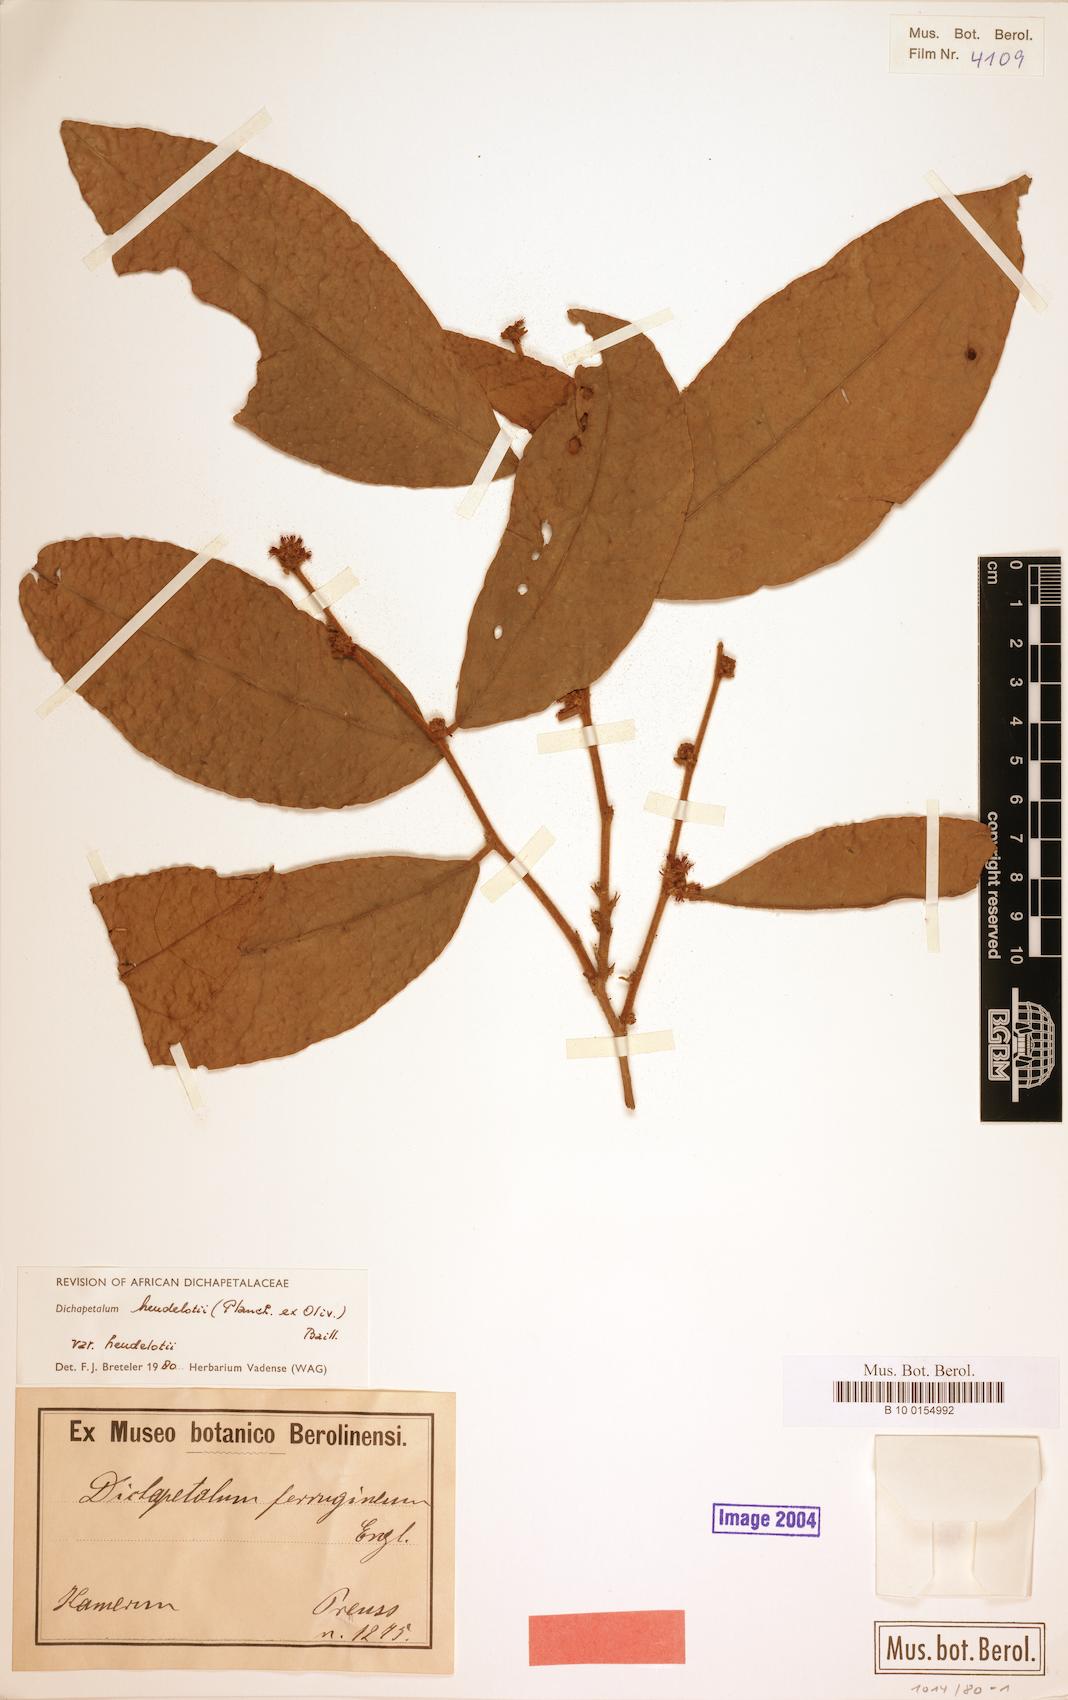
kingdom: Plantae
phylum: Tracheophyta
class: Magnoliopsida
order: Malpighiales
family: Dichapetalaceae
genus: Dichapetalum
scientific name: Dichapetalum heudelotii
